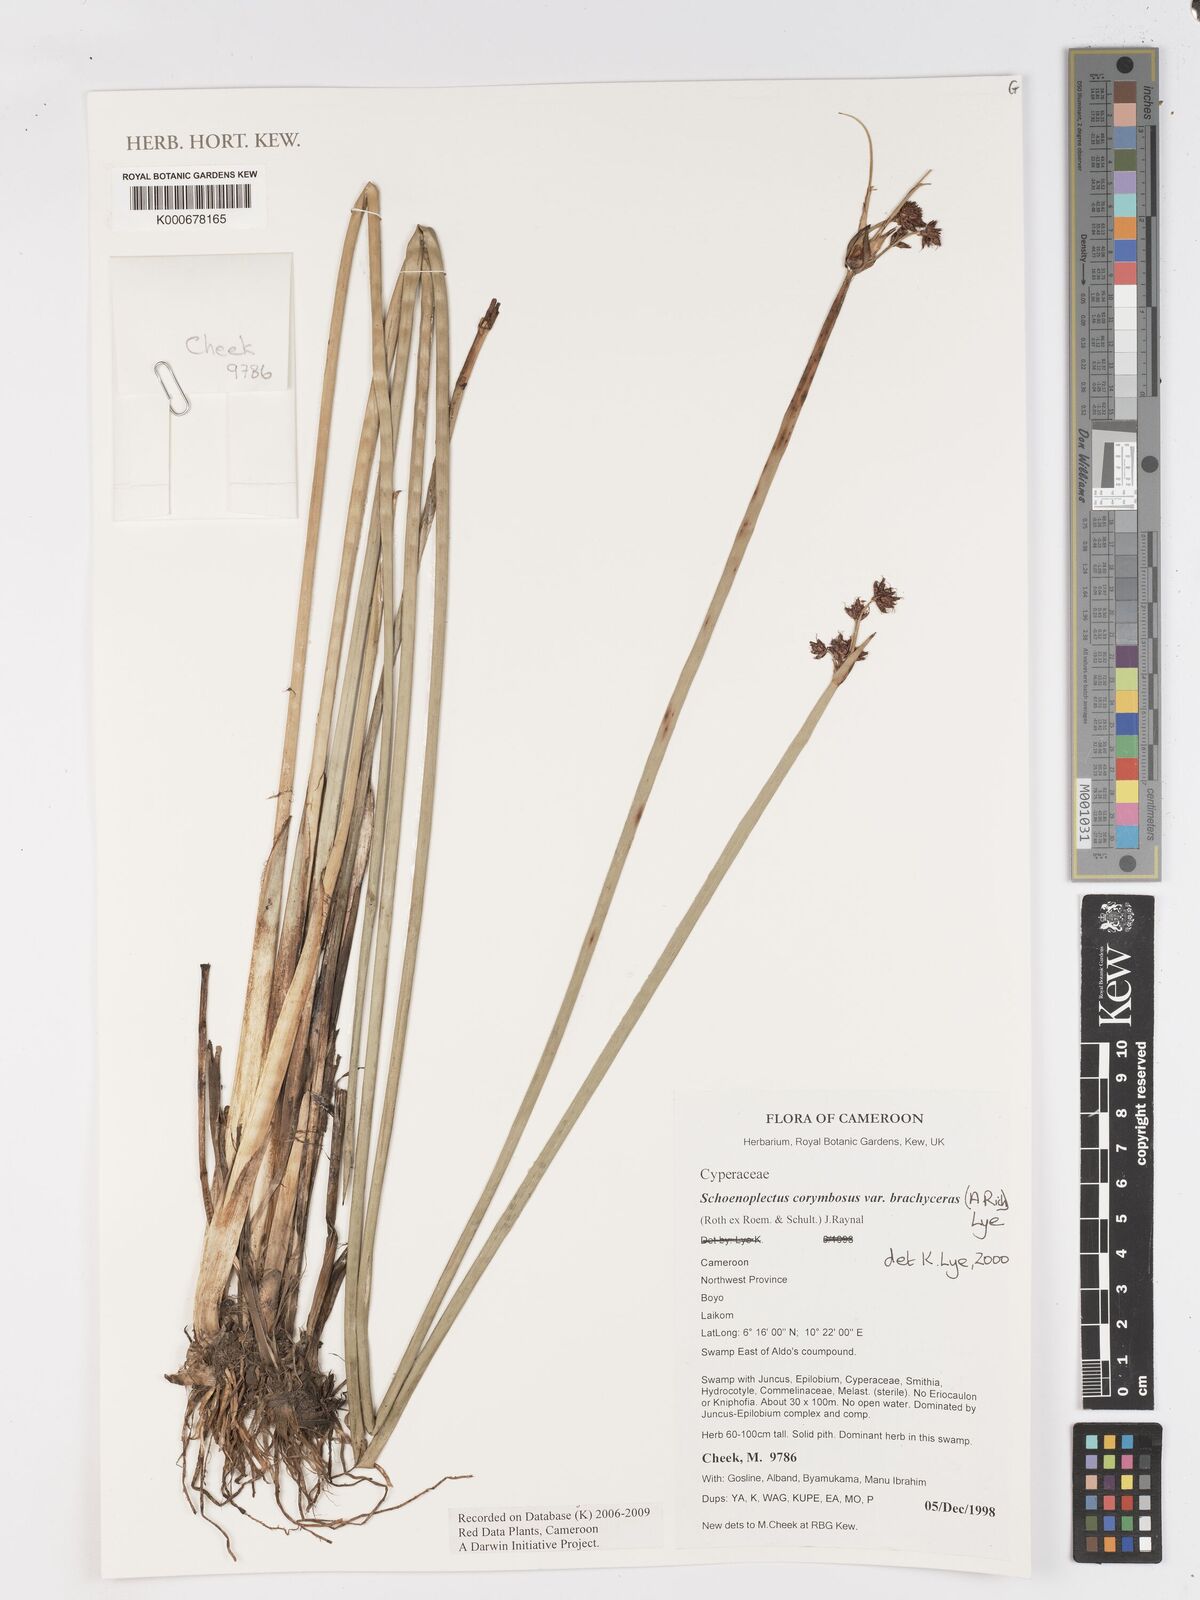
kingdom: Plantae
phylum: Tracheophyta
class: Liliopsida
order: Poales
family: Cyperaceae
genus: Schoenoplectiella
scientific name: Schoenoplectiella brachyceras
